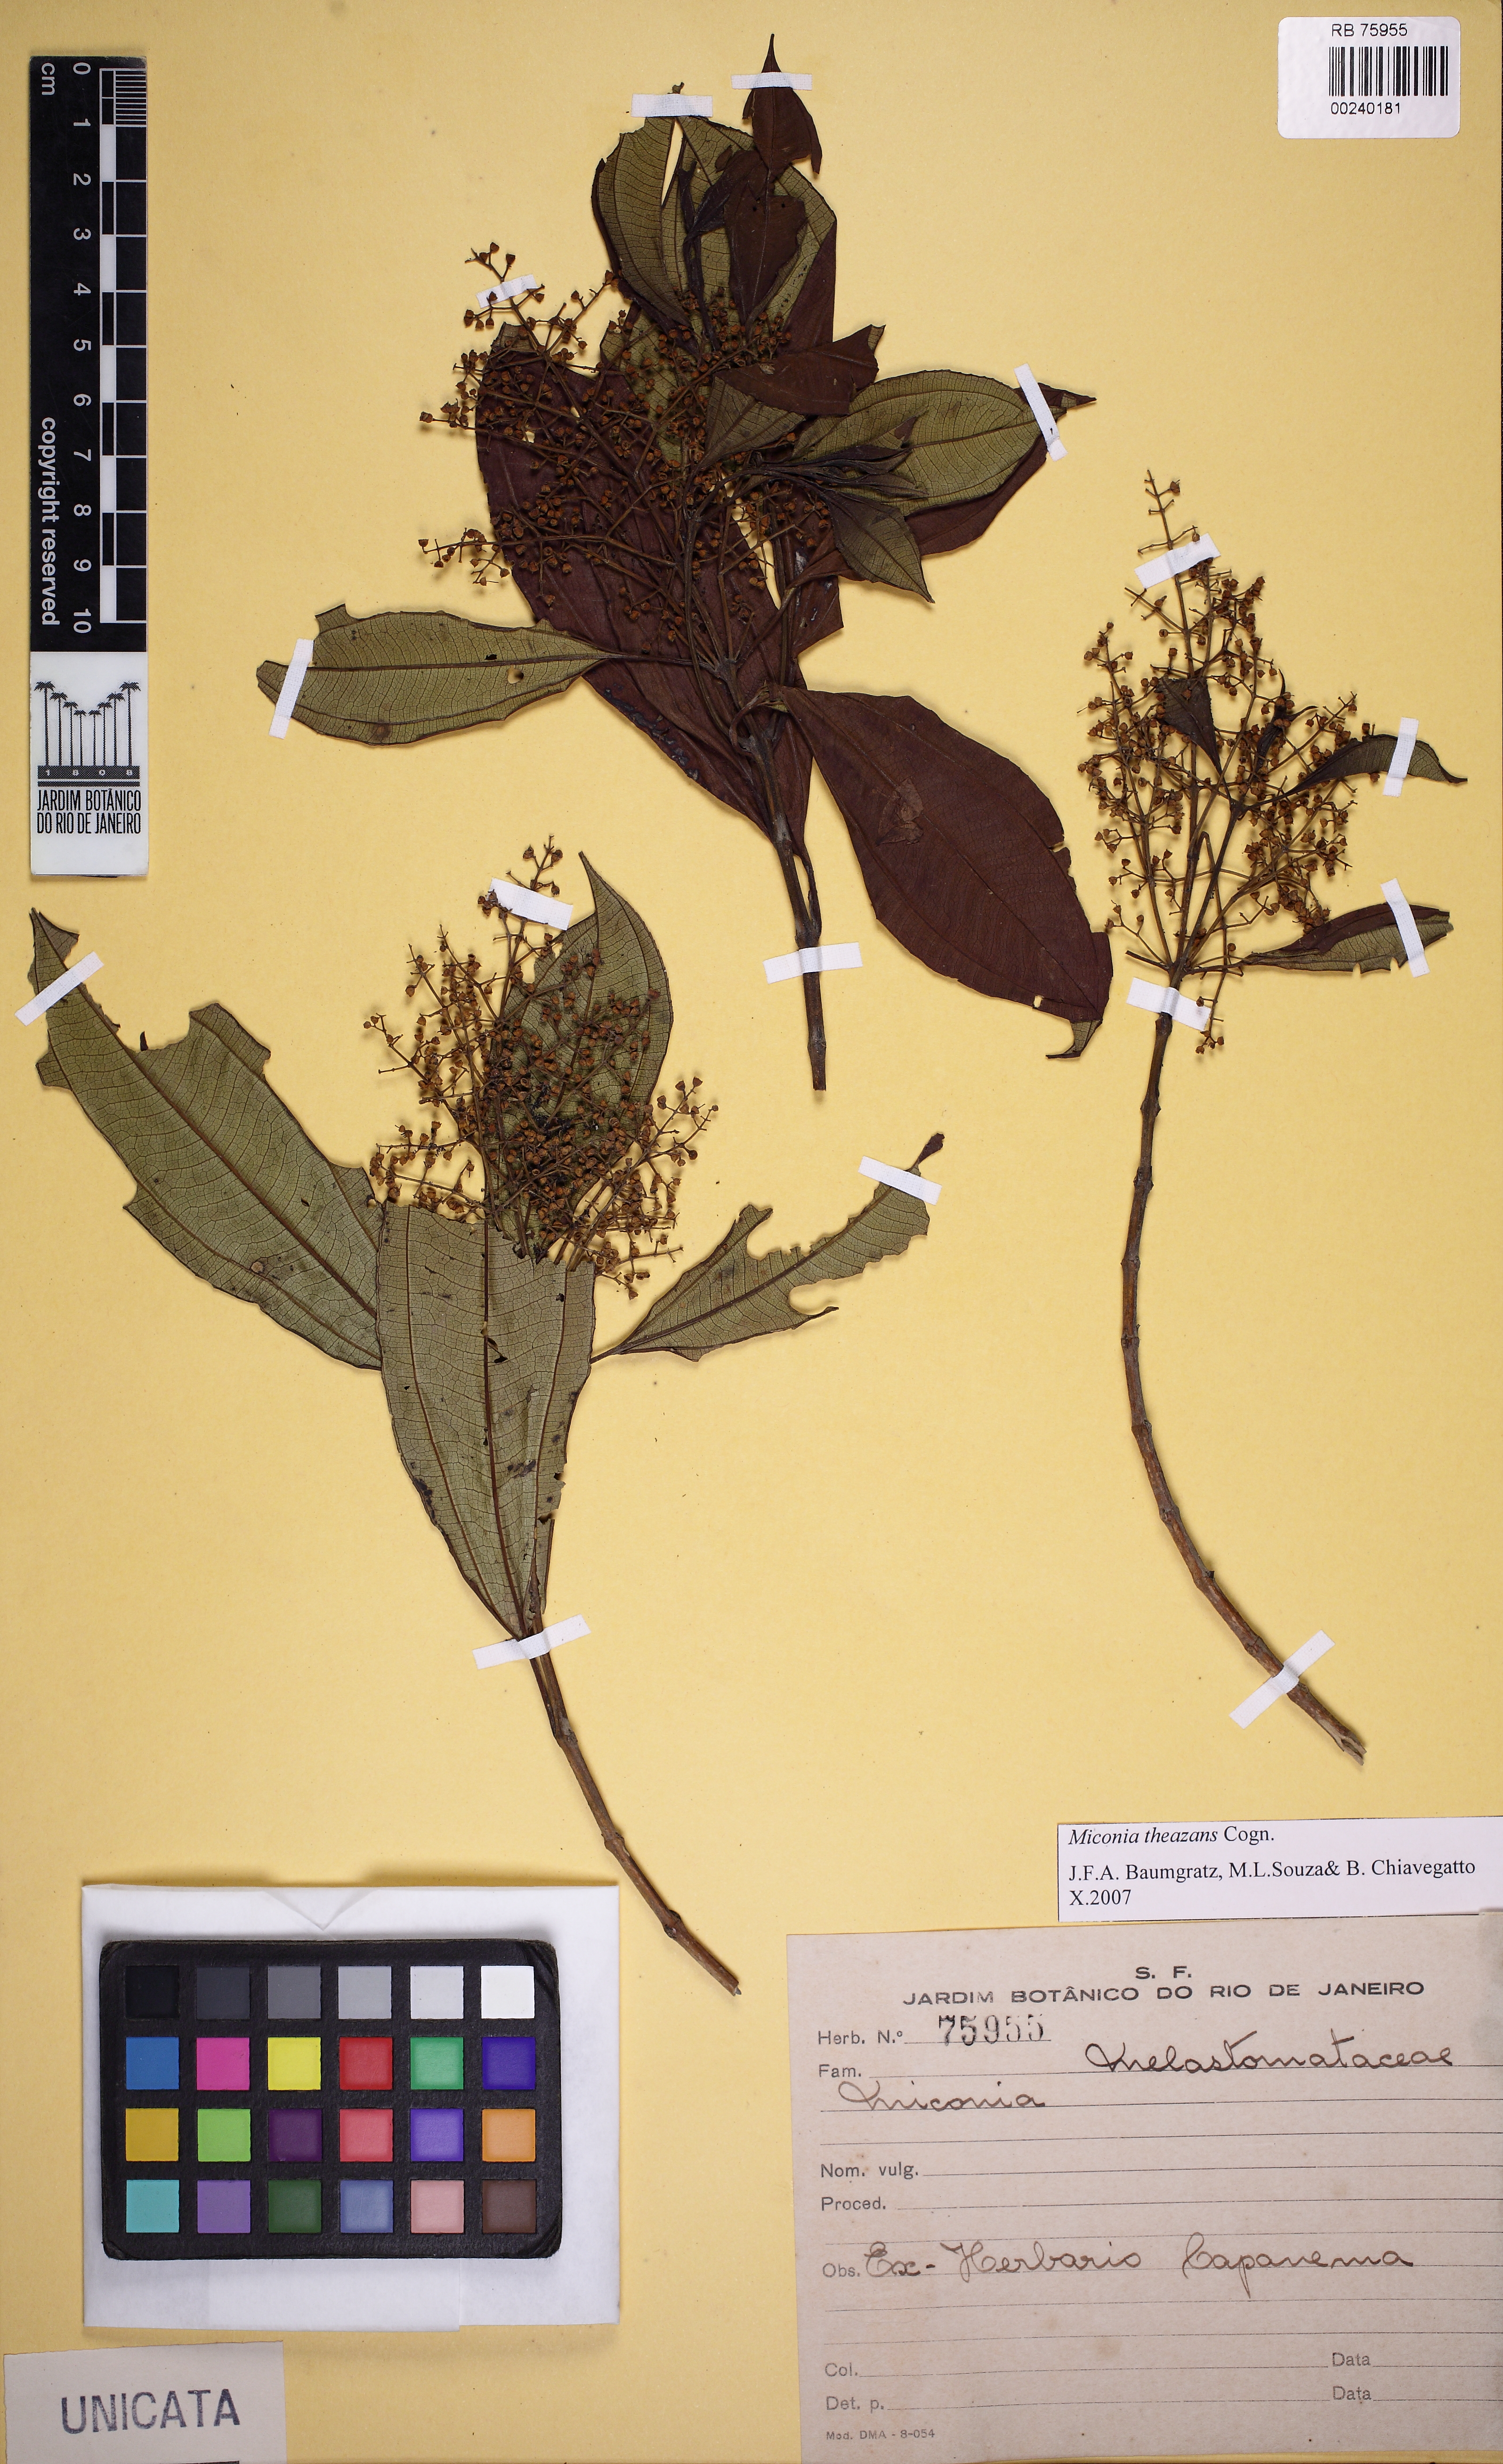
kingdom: Plantae
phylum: Tracheophyta
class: Magnoliopsida
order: Myrtales
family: Melastomataceae
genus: Miconia
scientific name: Miconia theizans
